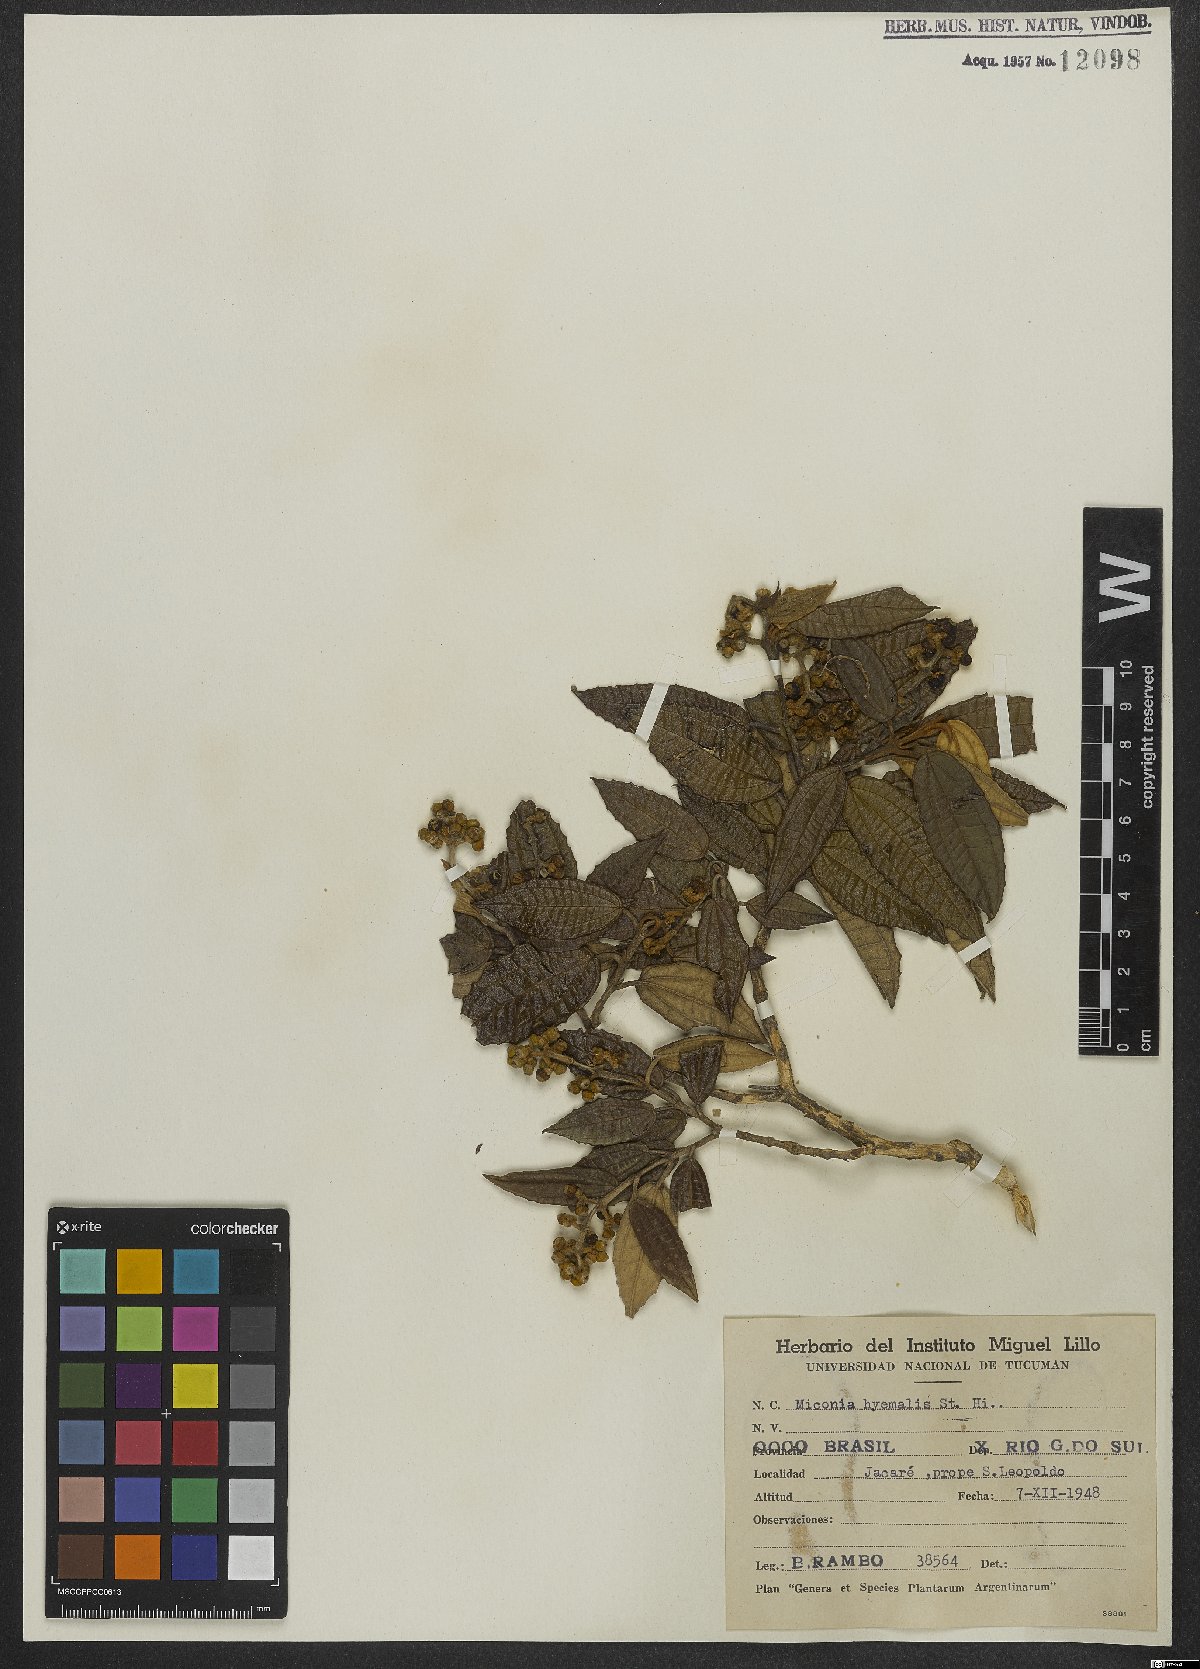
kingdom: Plantae
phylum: Tracheophyta
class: Magnoliopsida
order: Myrtales
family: Melastomataceae
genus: Miconia
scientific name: Miconia hyemalis
